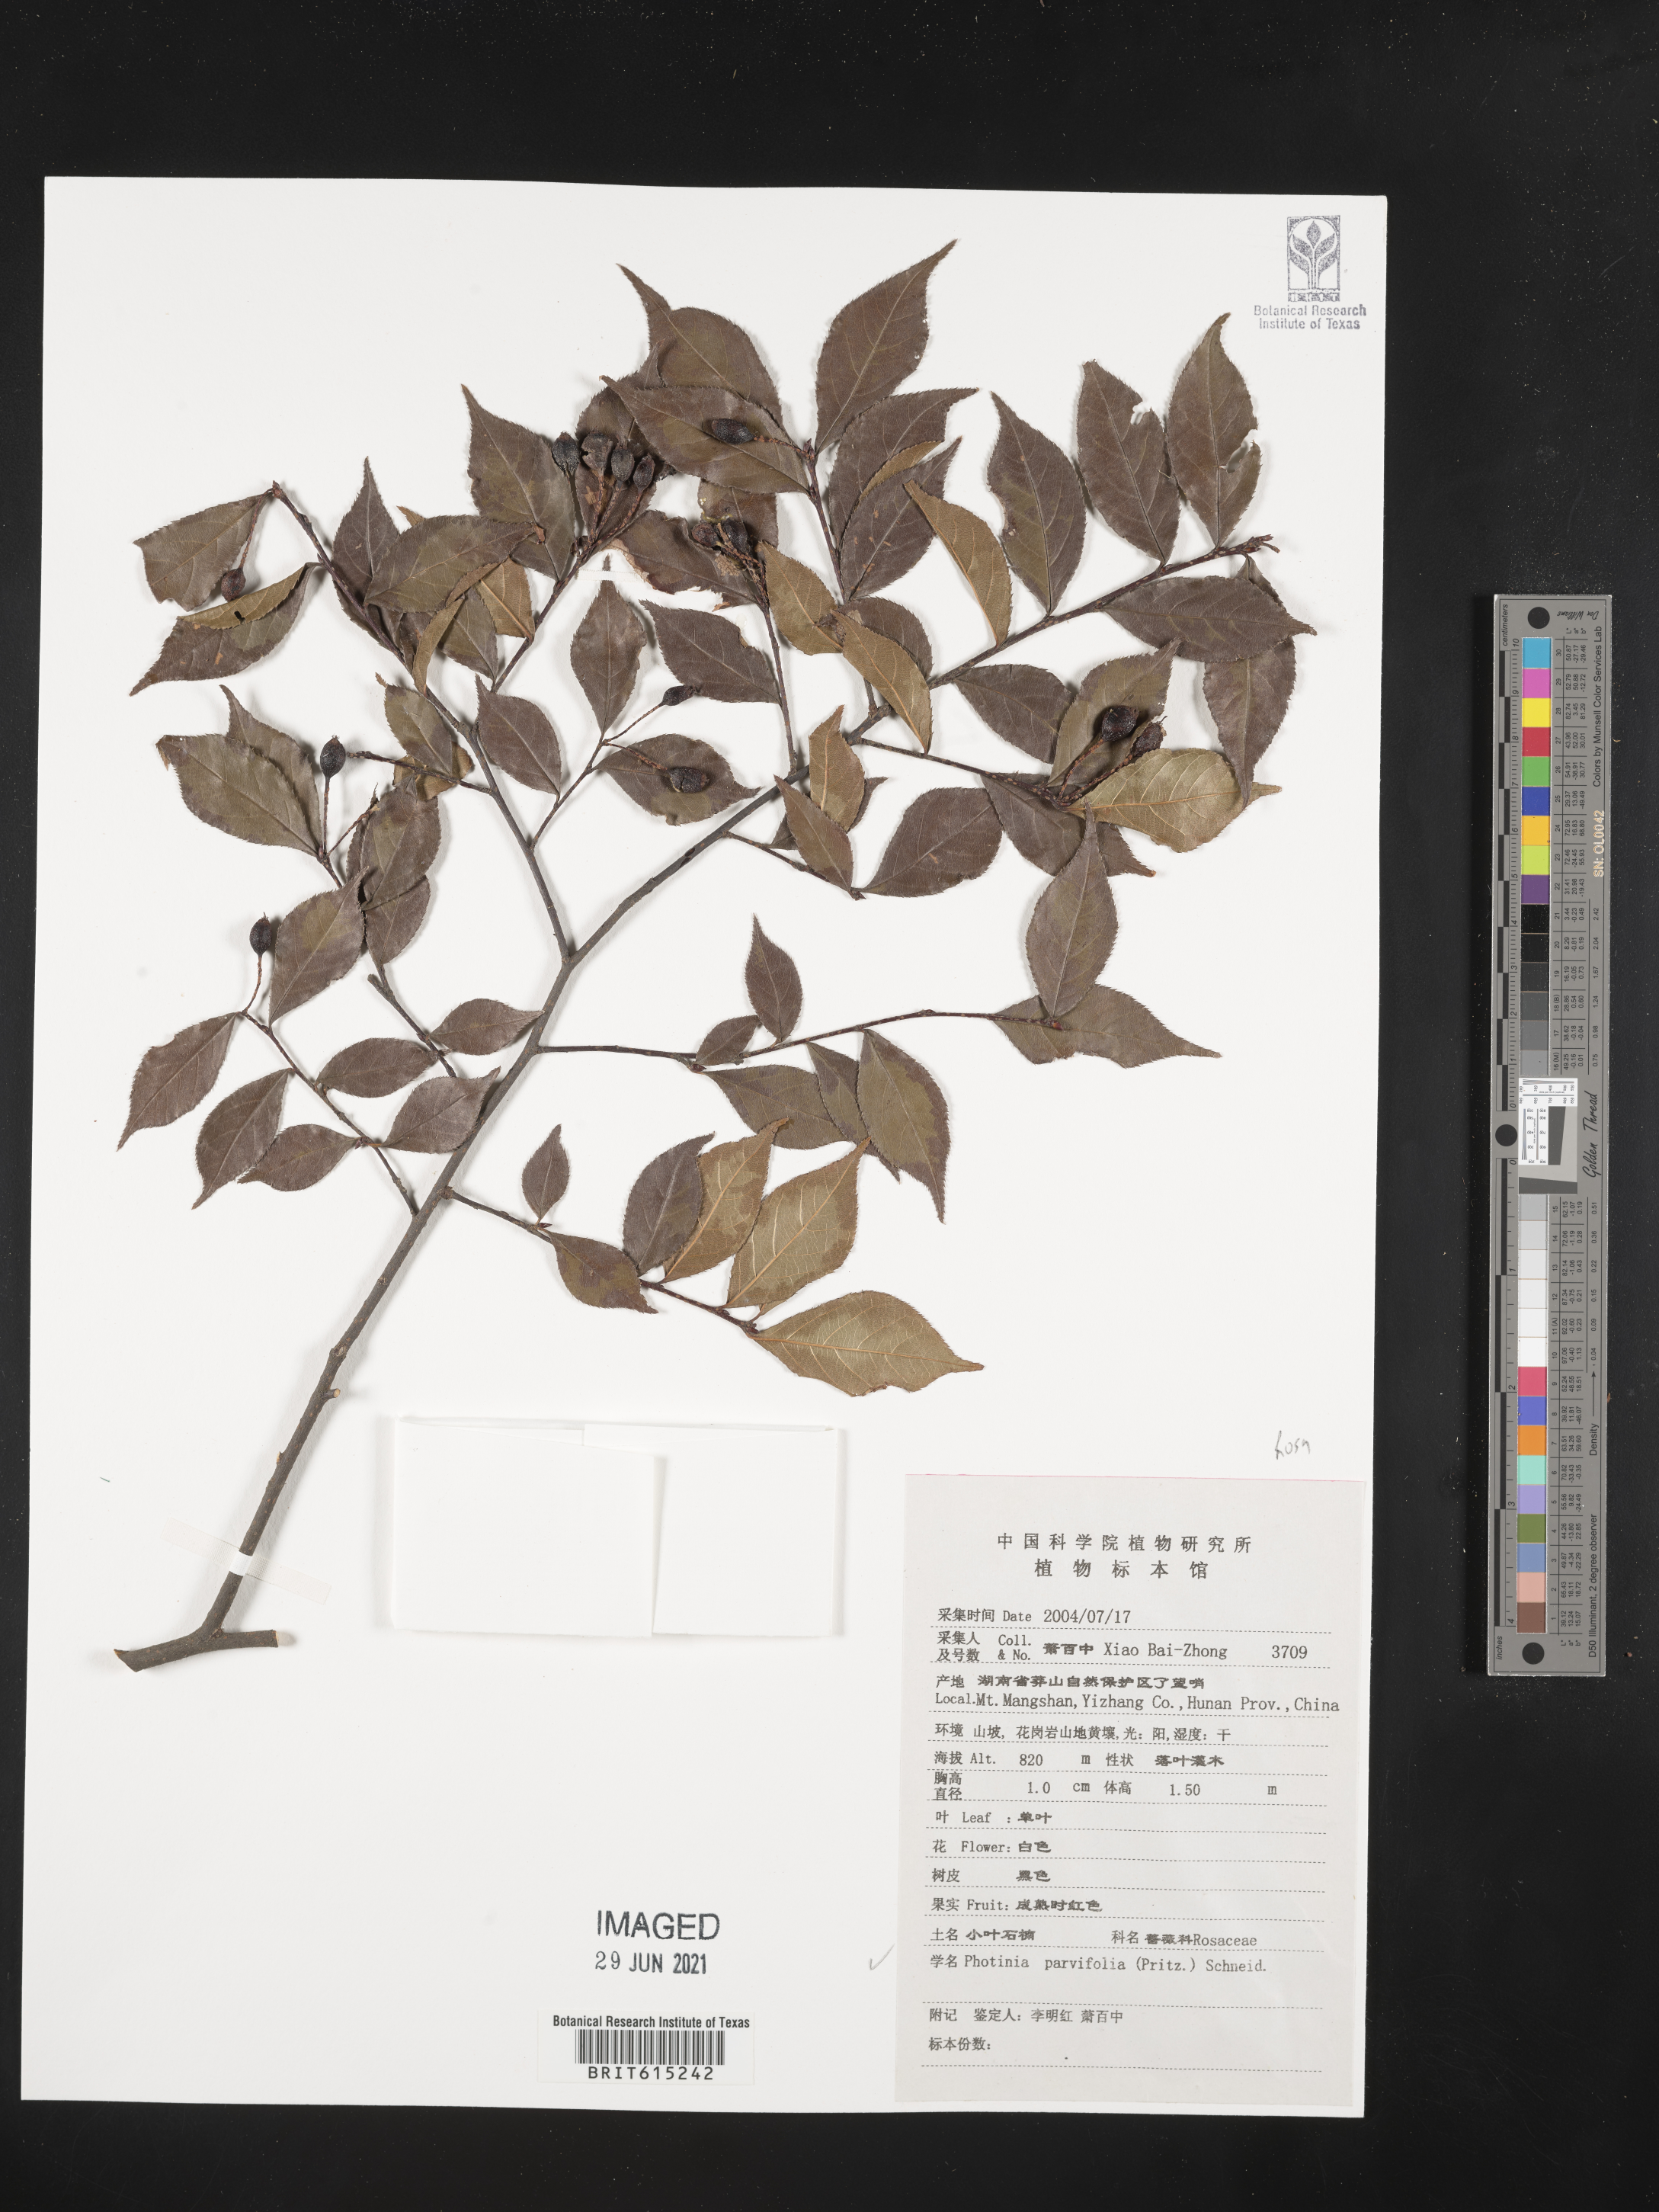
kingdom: Plantae
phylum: Tracheophyta
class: Magnoliopsida
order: Rosales
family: Rosaceae
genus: Pourthiaea
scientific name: Pourthiaea parviflora
